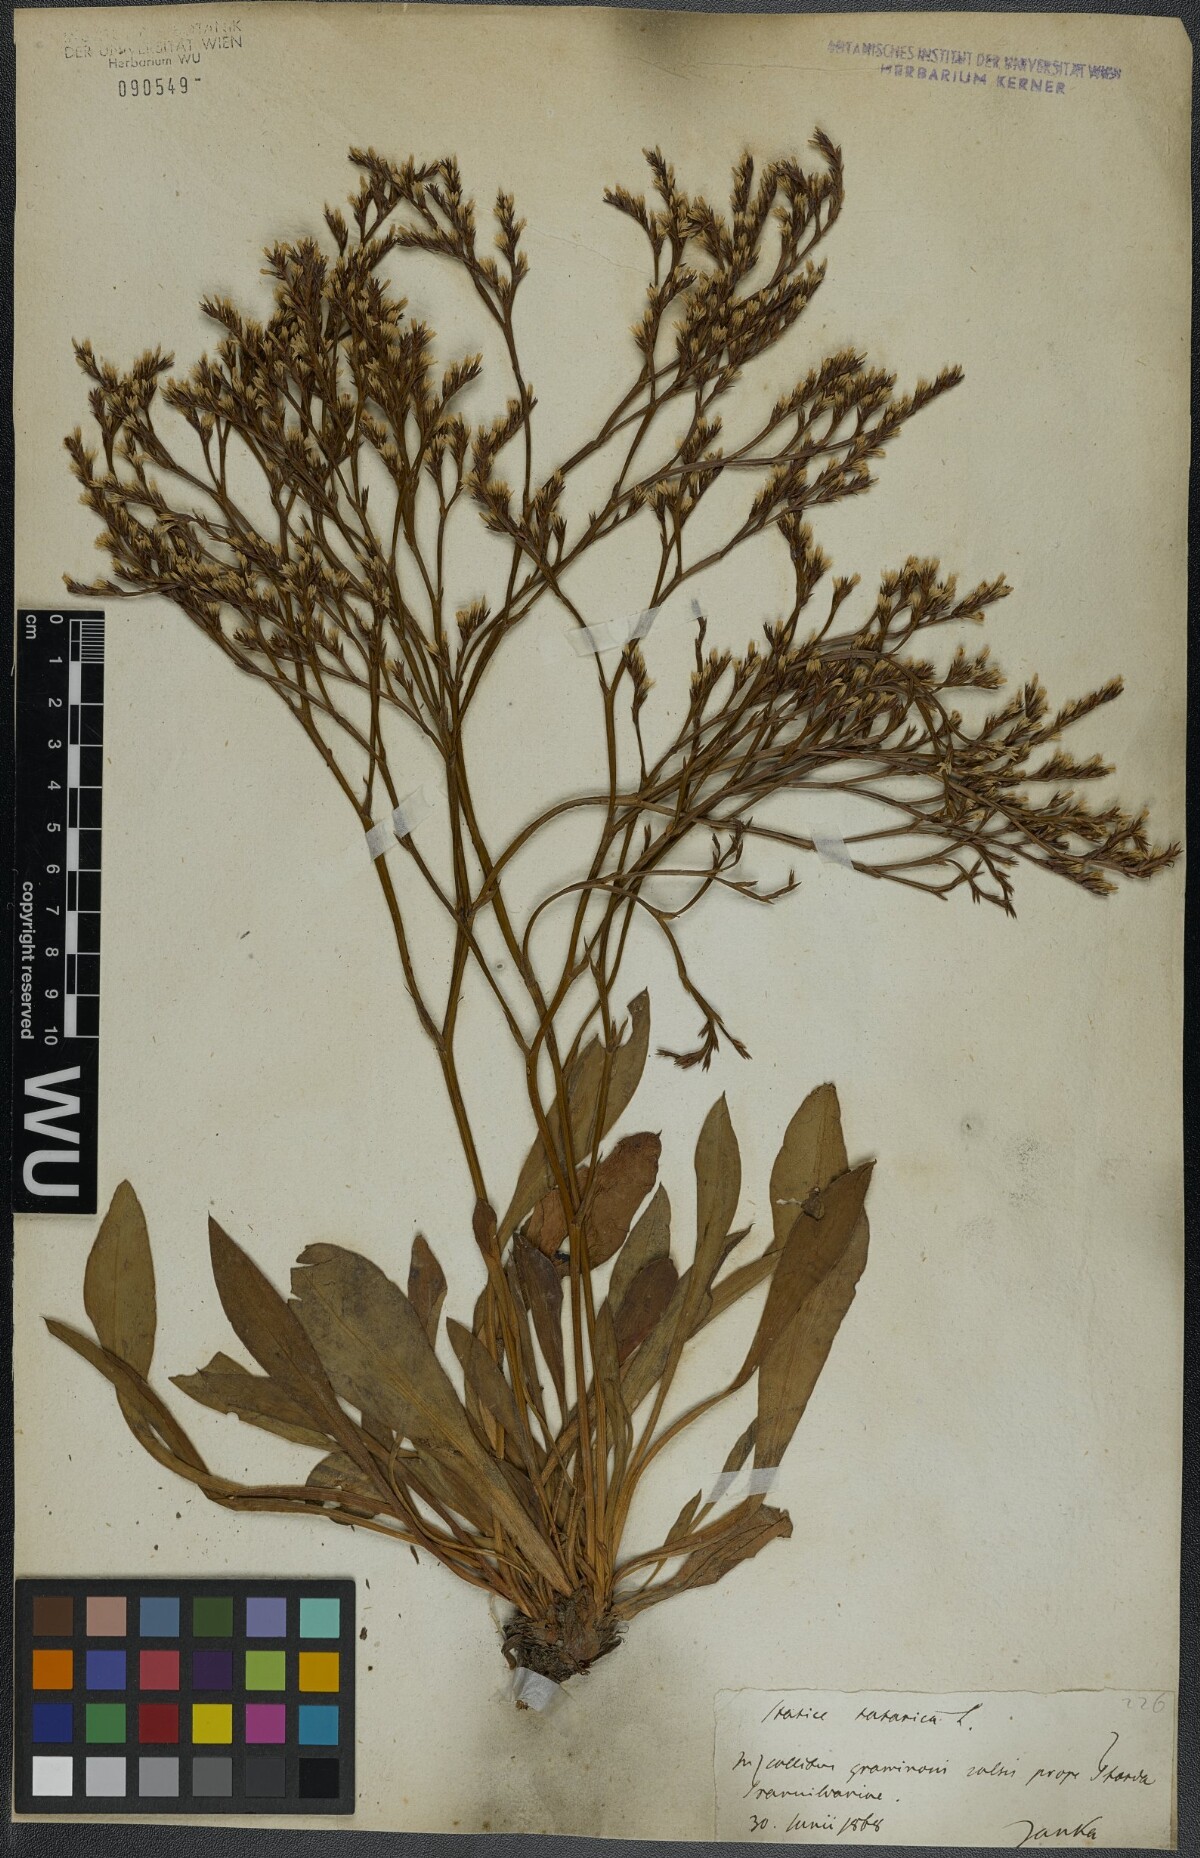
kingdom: Plantae
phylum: Tracheophyta
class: Magnoliopsida
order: Caryophyllales
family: Plumbaginaceae
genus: Goniolimon
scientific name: Goniolimon tataricum
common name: Statice
